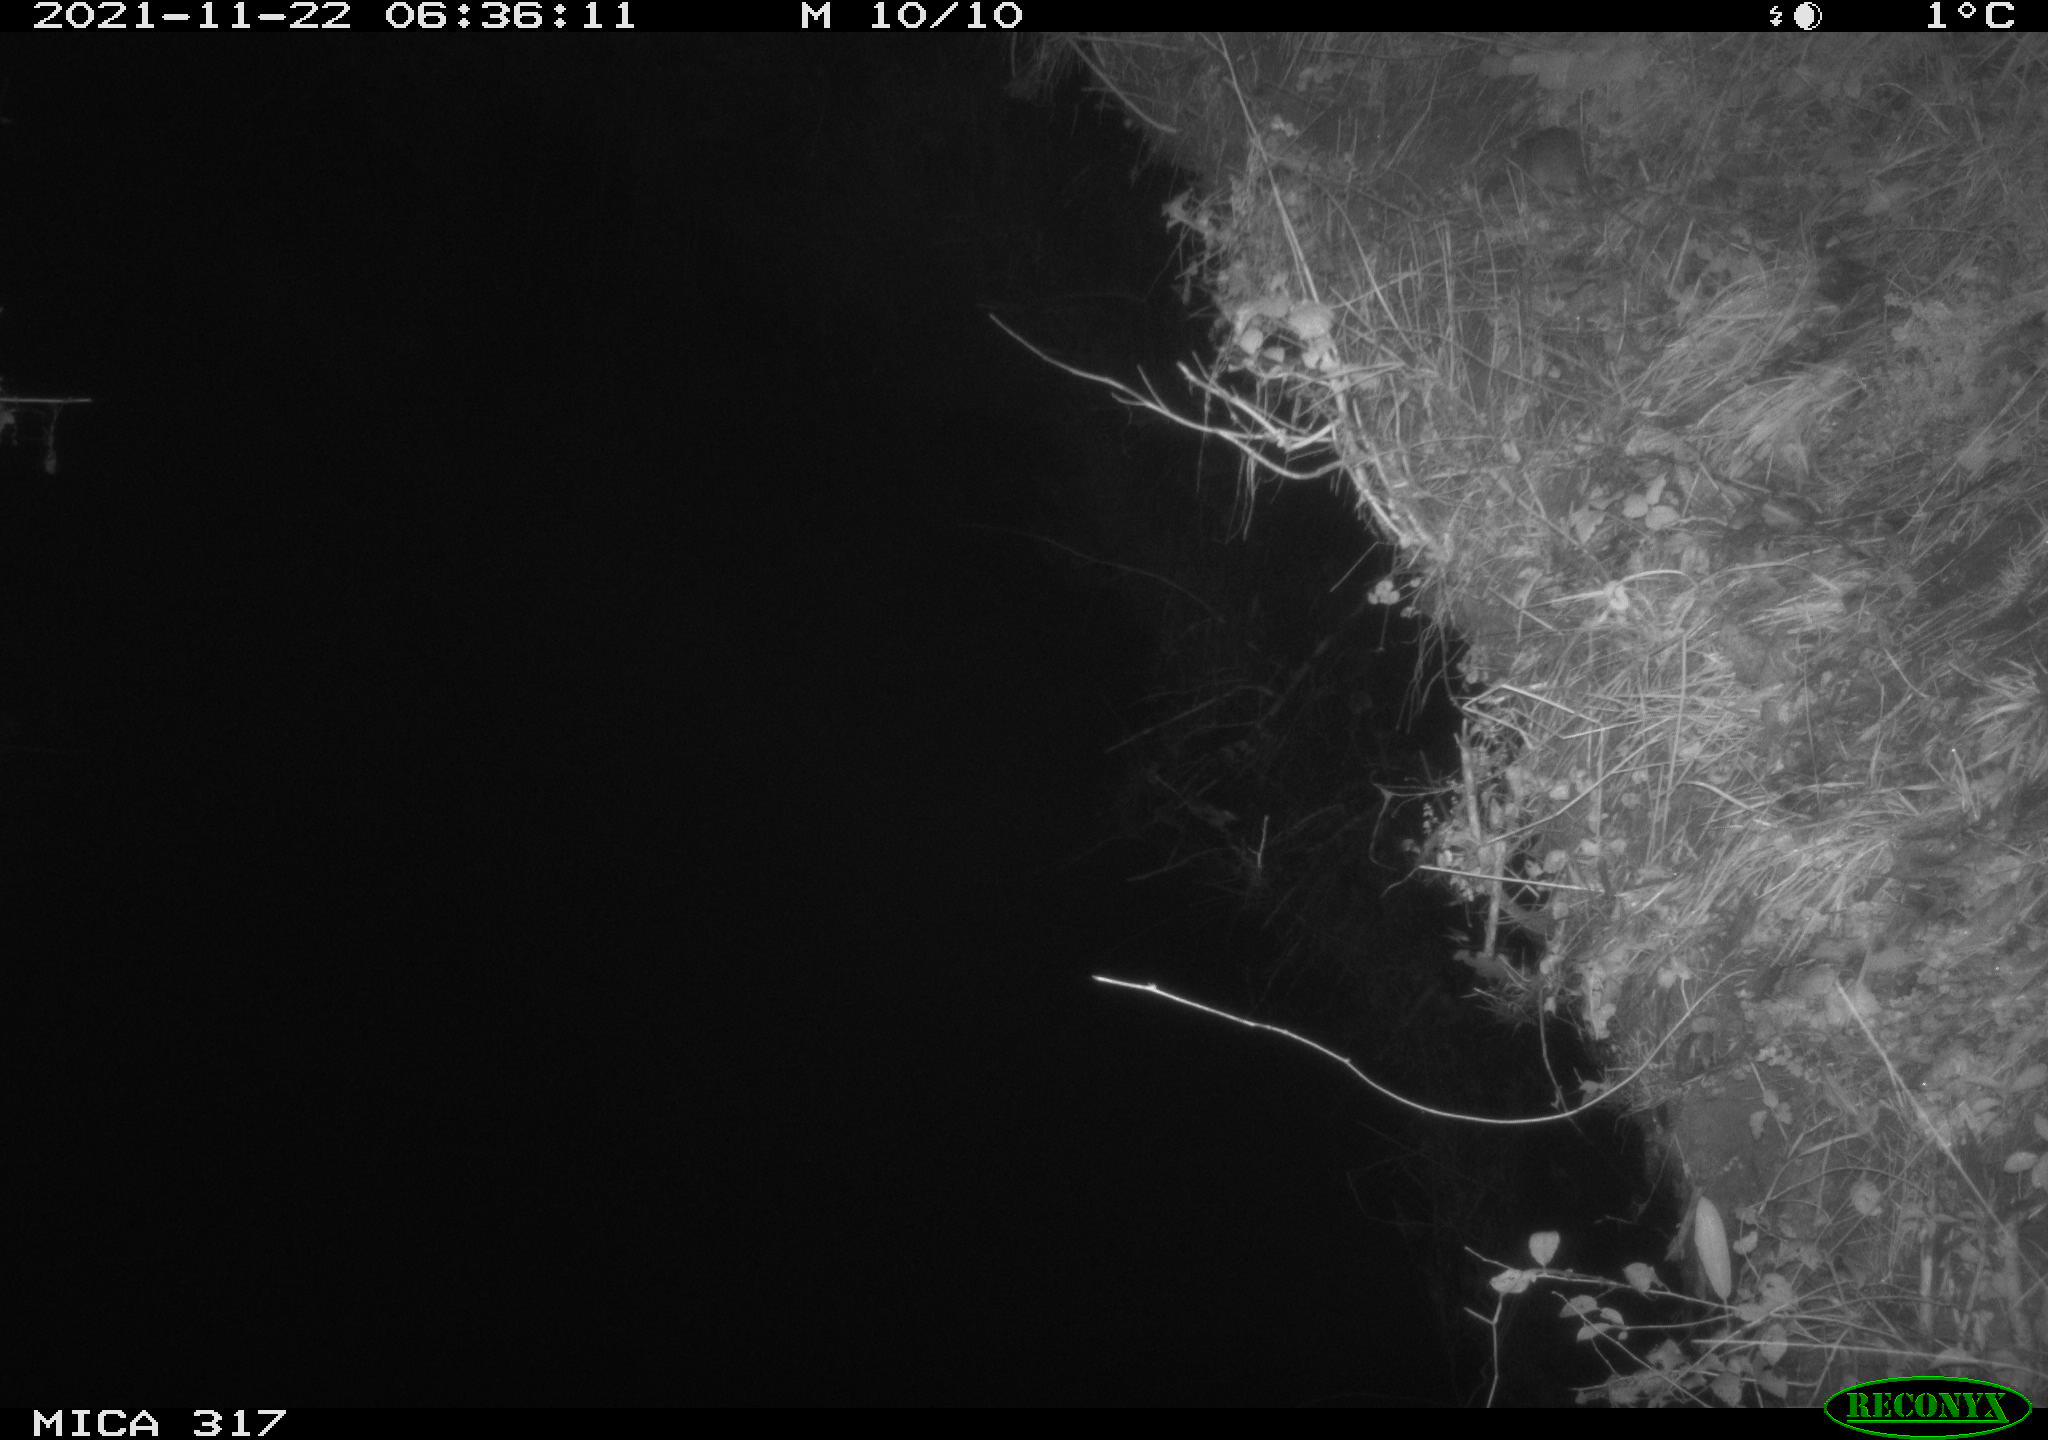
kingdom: Animalia
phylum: Chordata
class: Mammalia
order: Rodentia
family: Muridae
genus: Rattus
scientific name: Rattus norvegicus
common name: Brown rat
